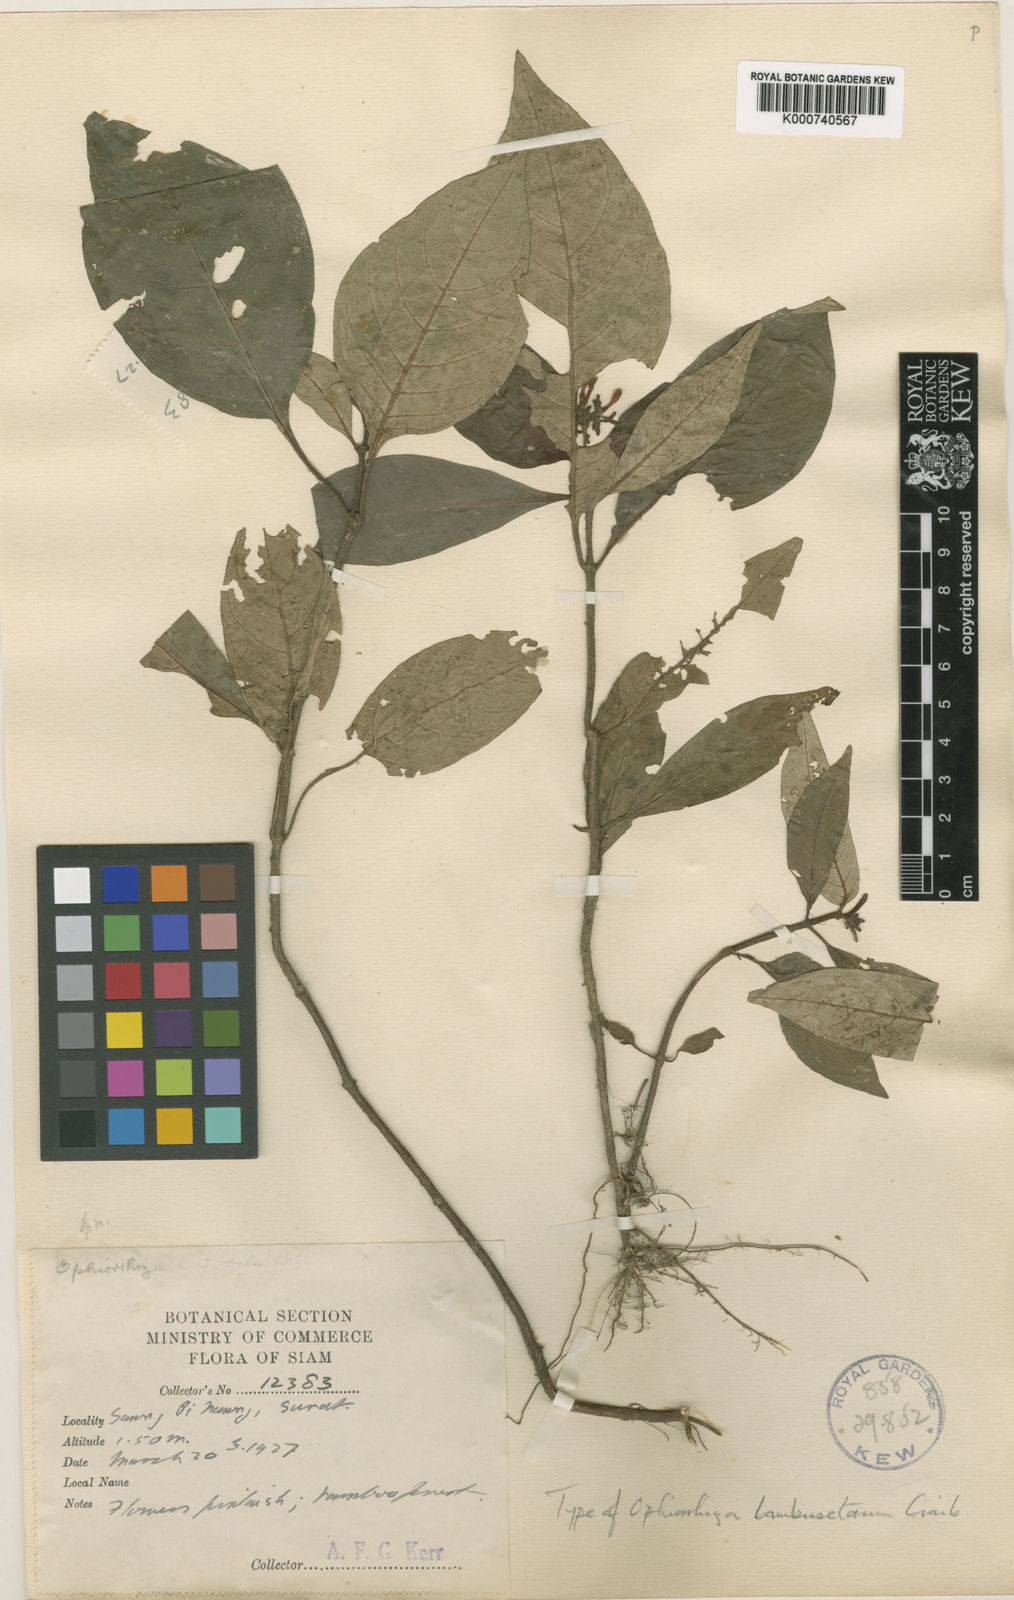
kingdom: Plantae
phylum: Tracheophyta
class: Magnoliopsida
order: Gentianales
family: Rubiaceae
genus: Ophiorrhiza
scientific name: Ophiorrhiza erubescens
